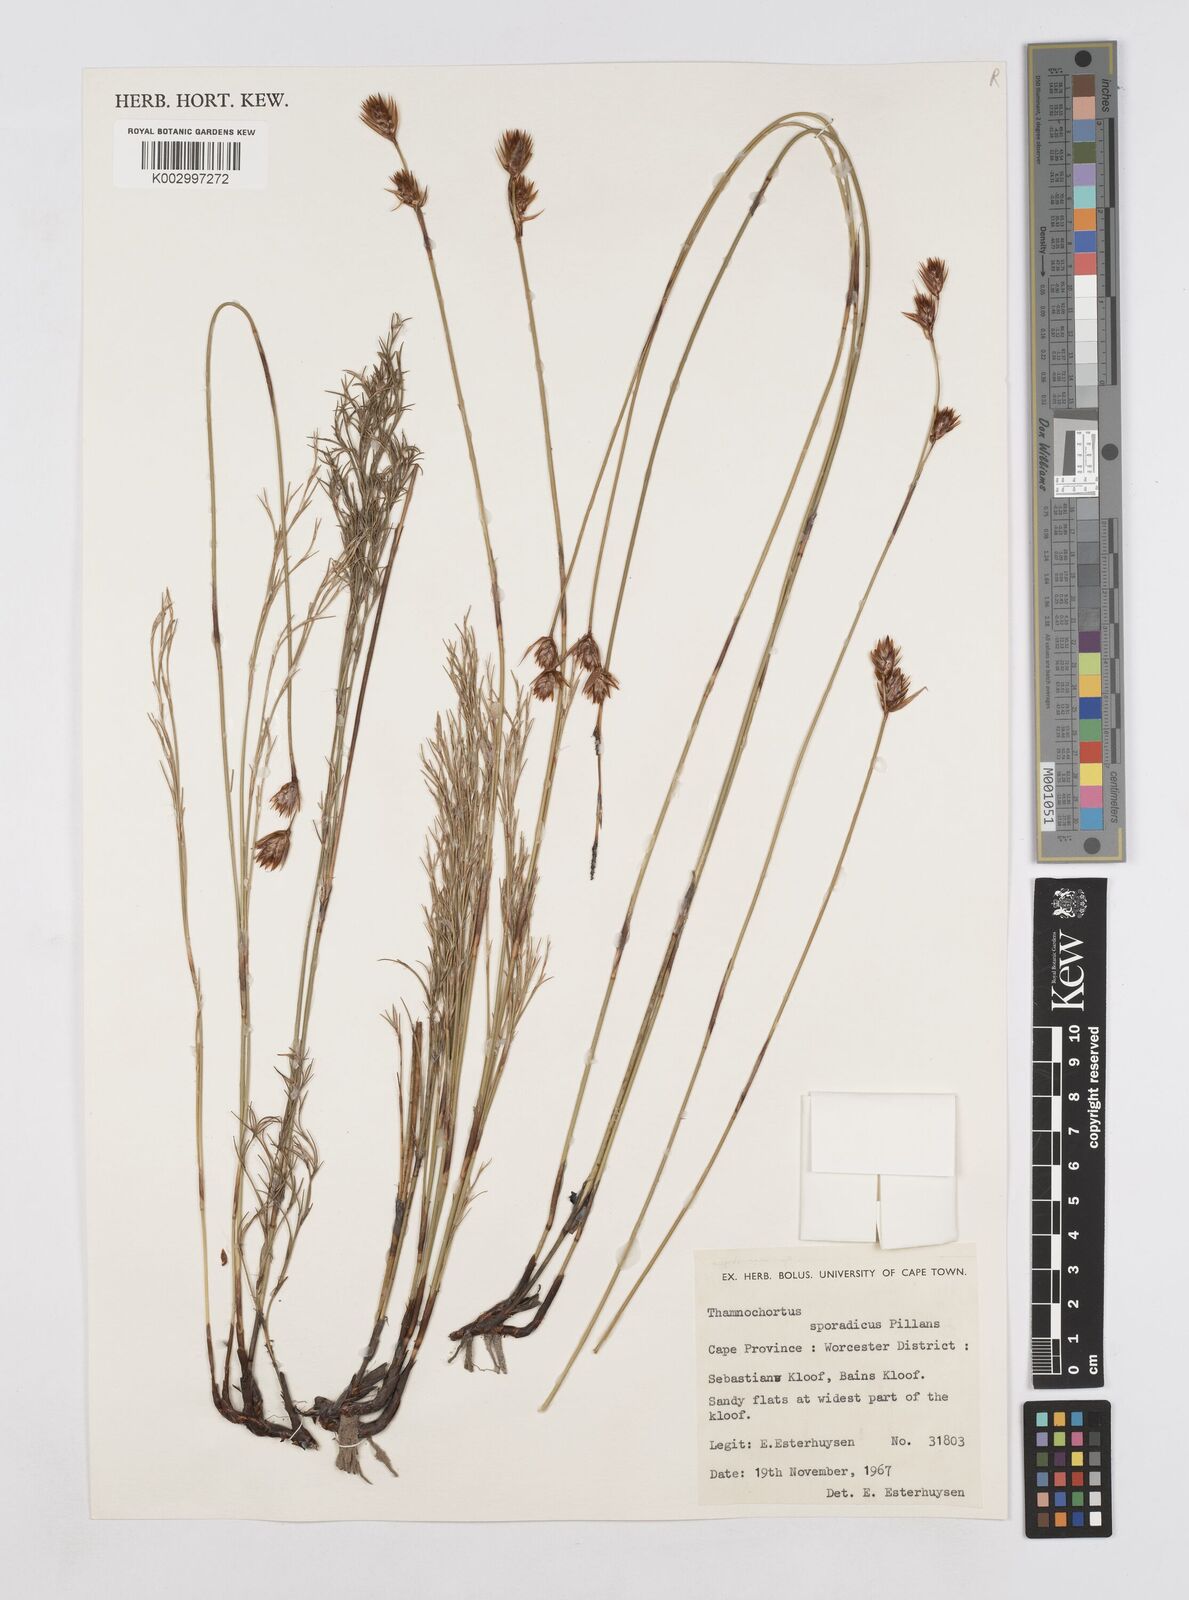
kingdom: Plantae
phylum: Tracheophyta
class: Liliopsida
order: Poales
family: Restionaceae
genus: Thamnochortus
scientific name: Thamnochortus sporadicus
